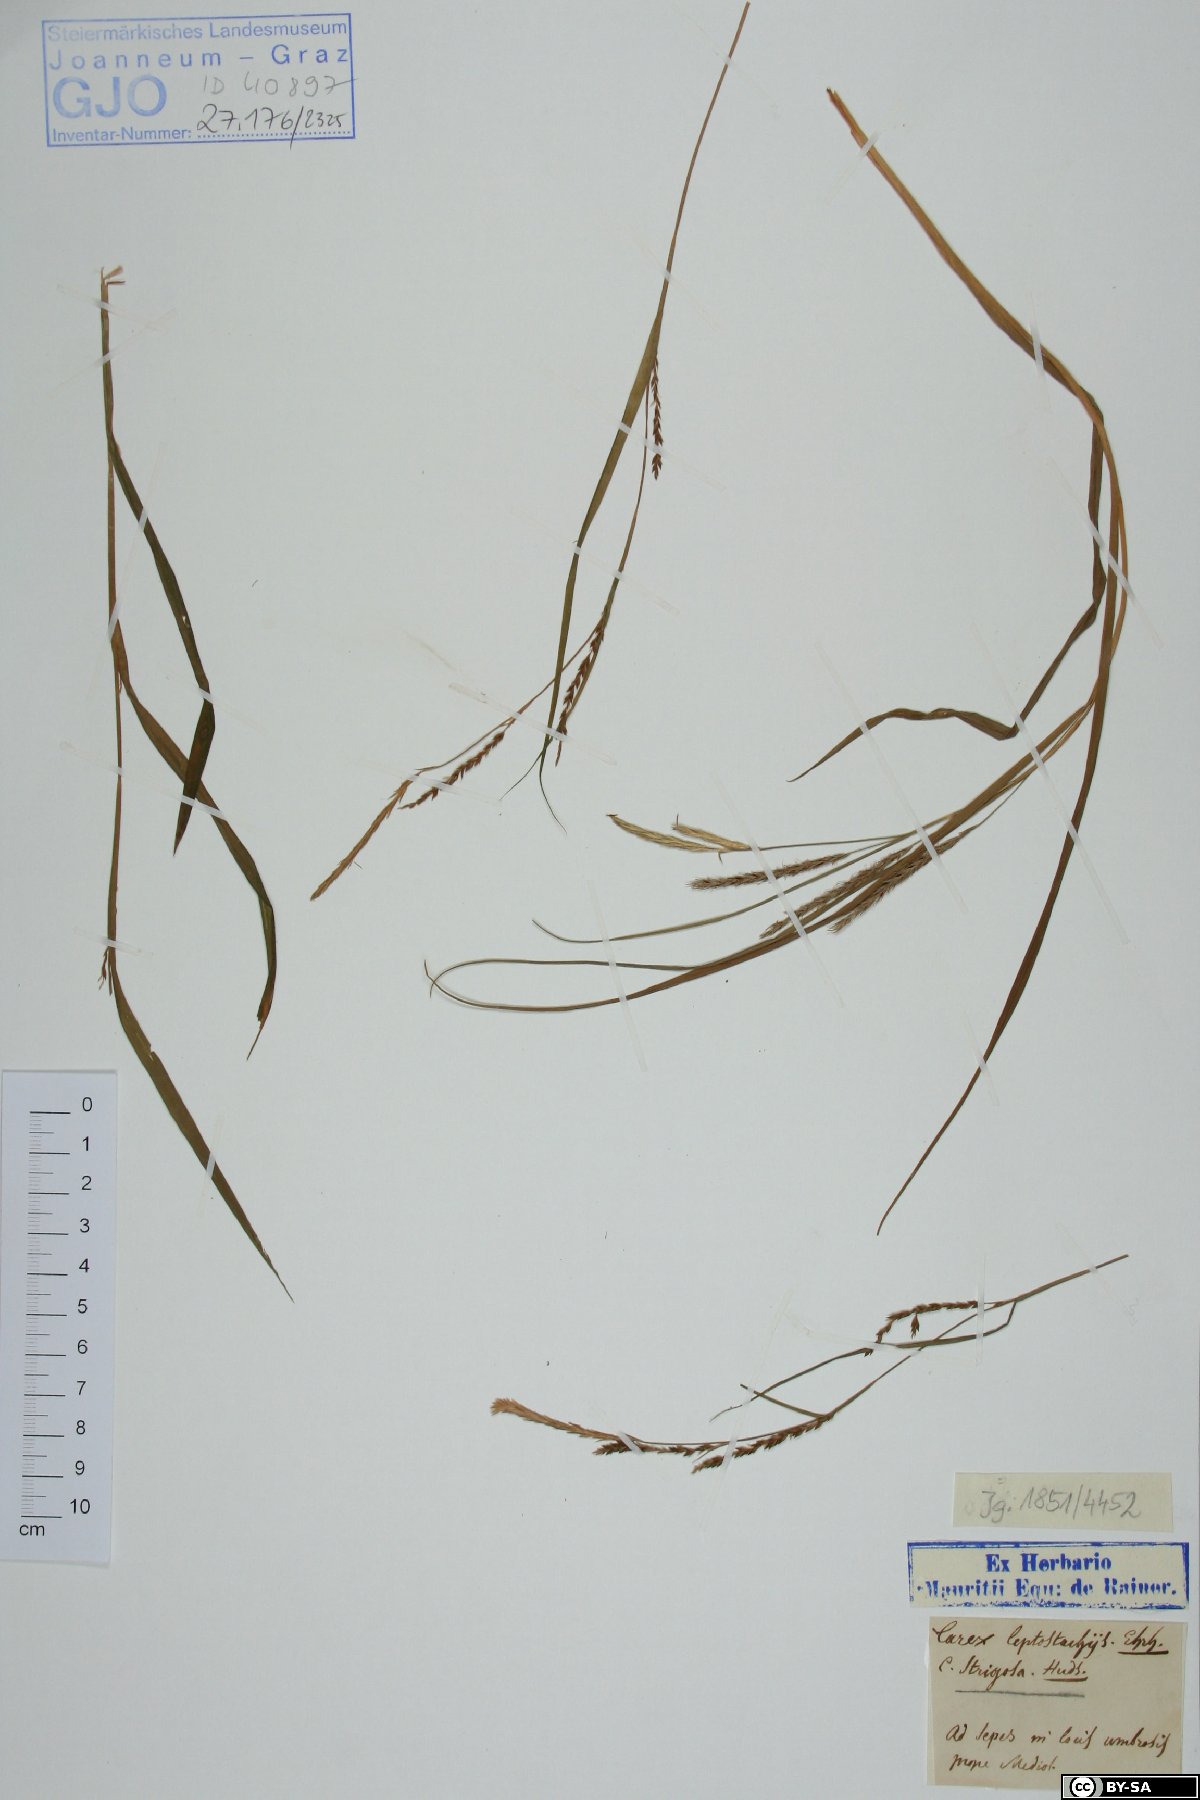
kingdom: Plantae
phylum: Tracheophyta
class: Liliopsida
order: Poales
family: Cyperaceae
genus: Carex
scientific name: Carex strigosa
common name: Thin-spiked wood-sedge
